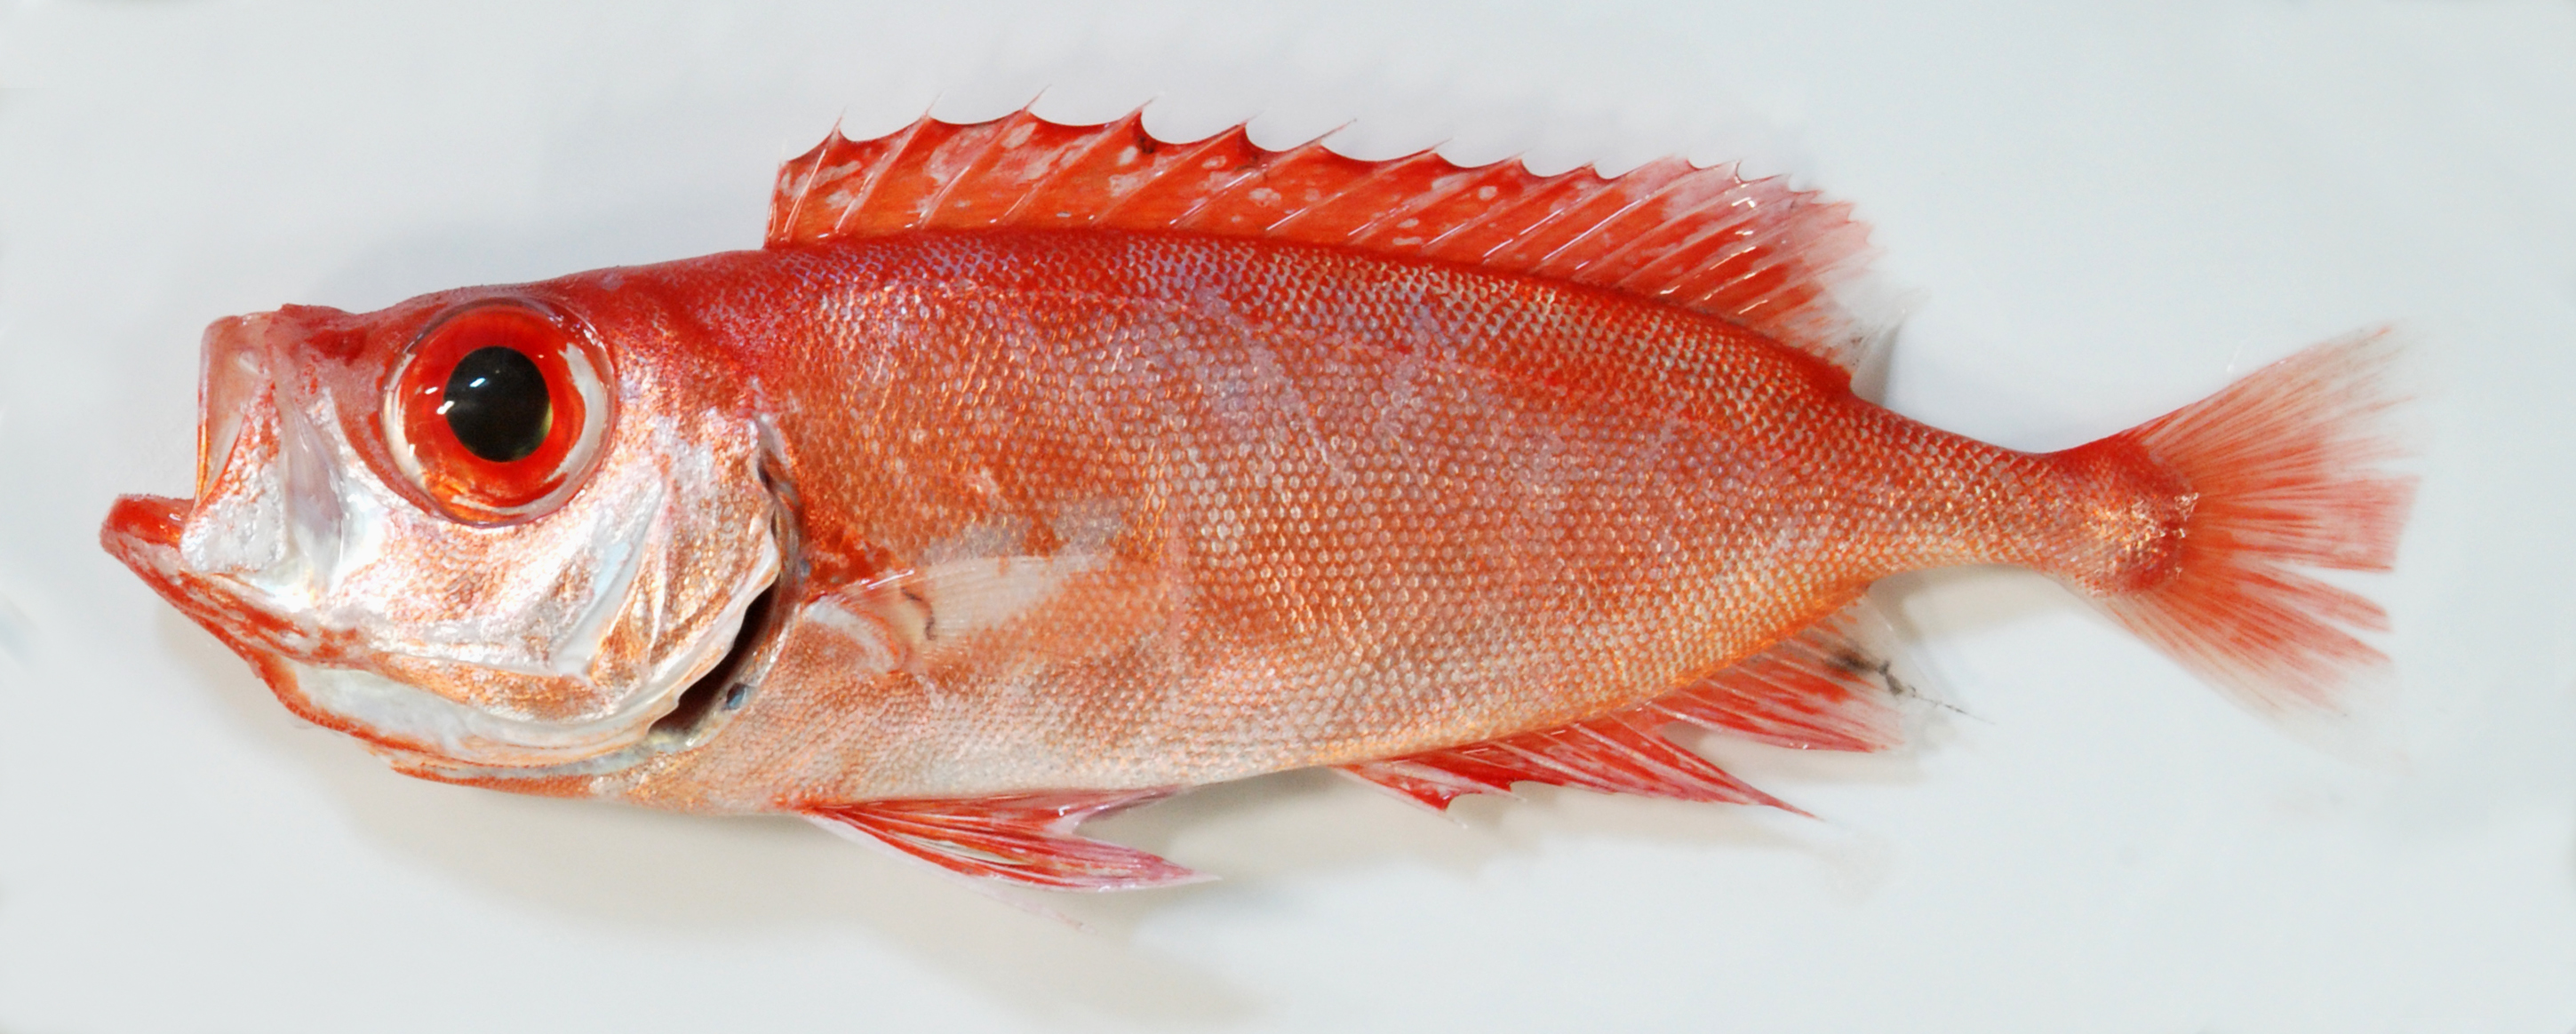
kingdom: Animalia
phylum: Chordata
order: Perciformes
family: Priacanthidae
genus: Heteropriacanthus
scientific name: Heteropriacanthus cruentatus
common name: Glasseye
